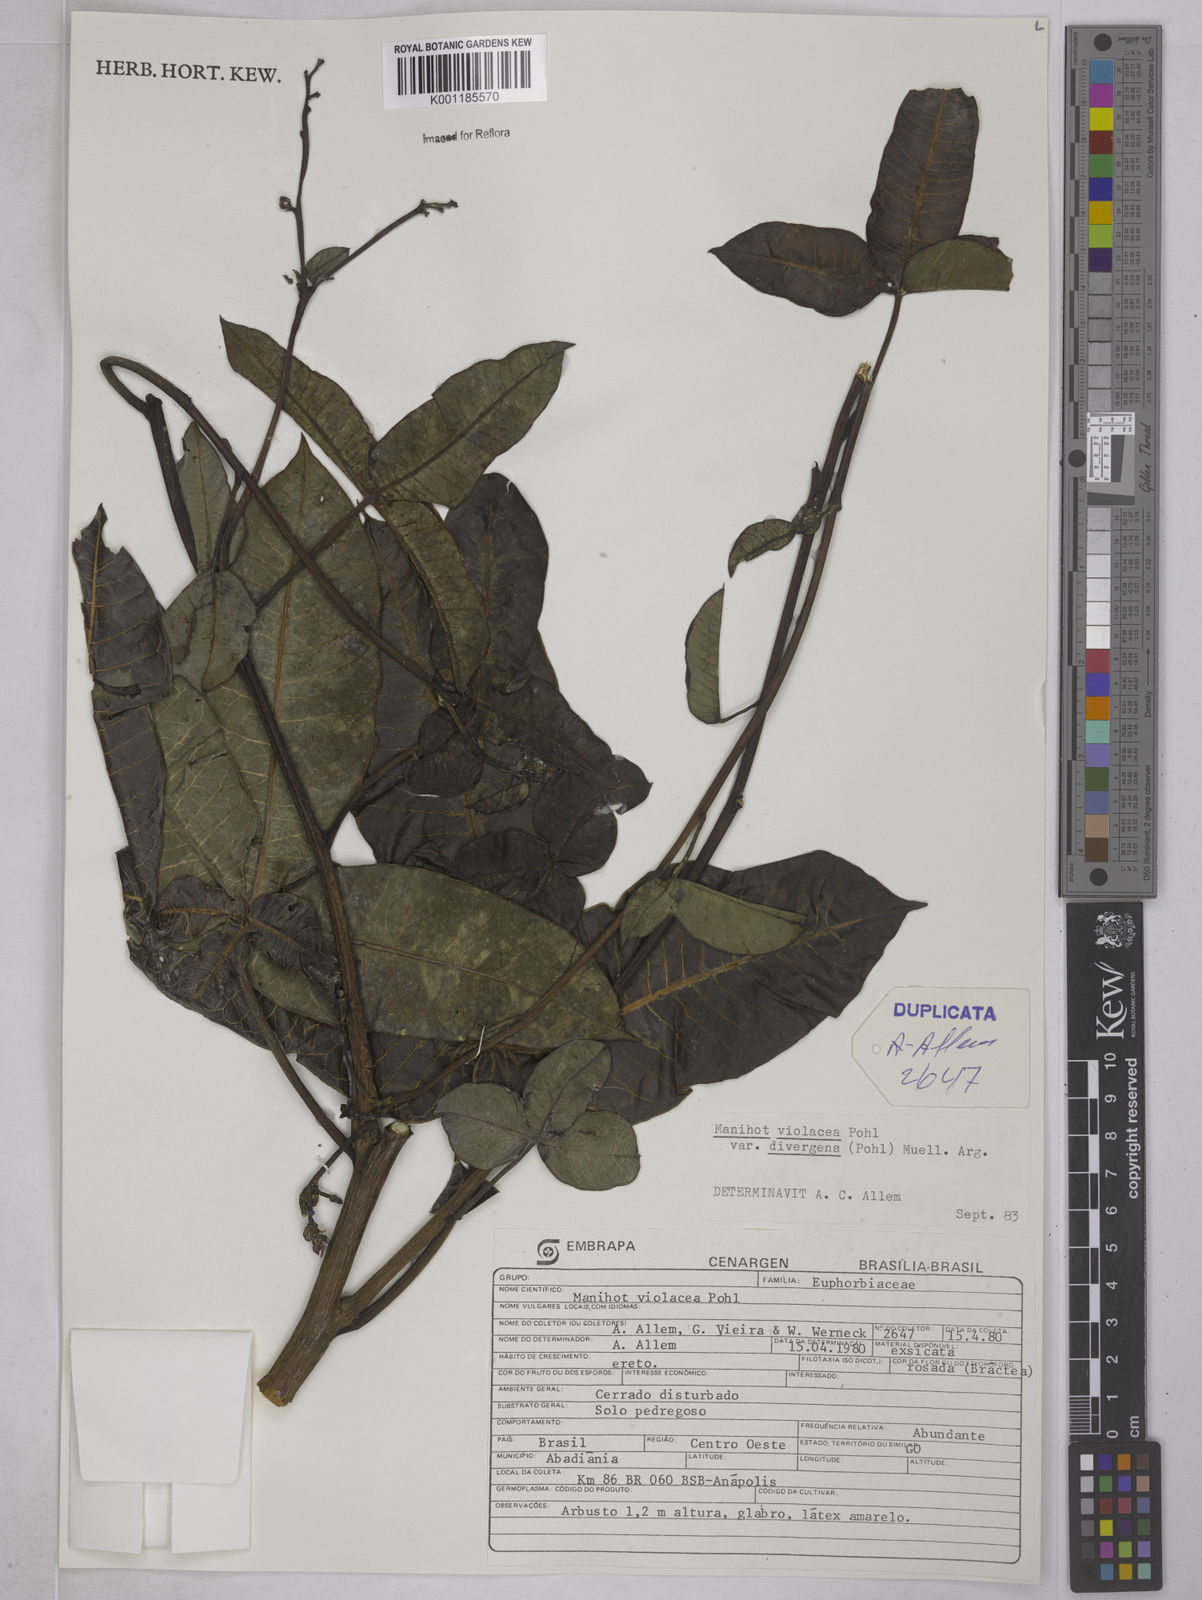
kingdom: Plantae
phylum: Tracheophyta
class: Magnoliopsida
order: Malpighiales
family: Euphorbiaceae
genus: Manihot
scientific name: Manihot divergens
